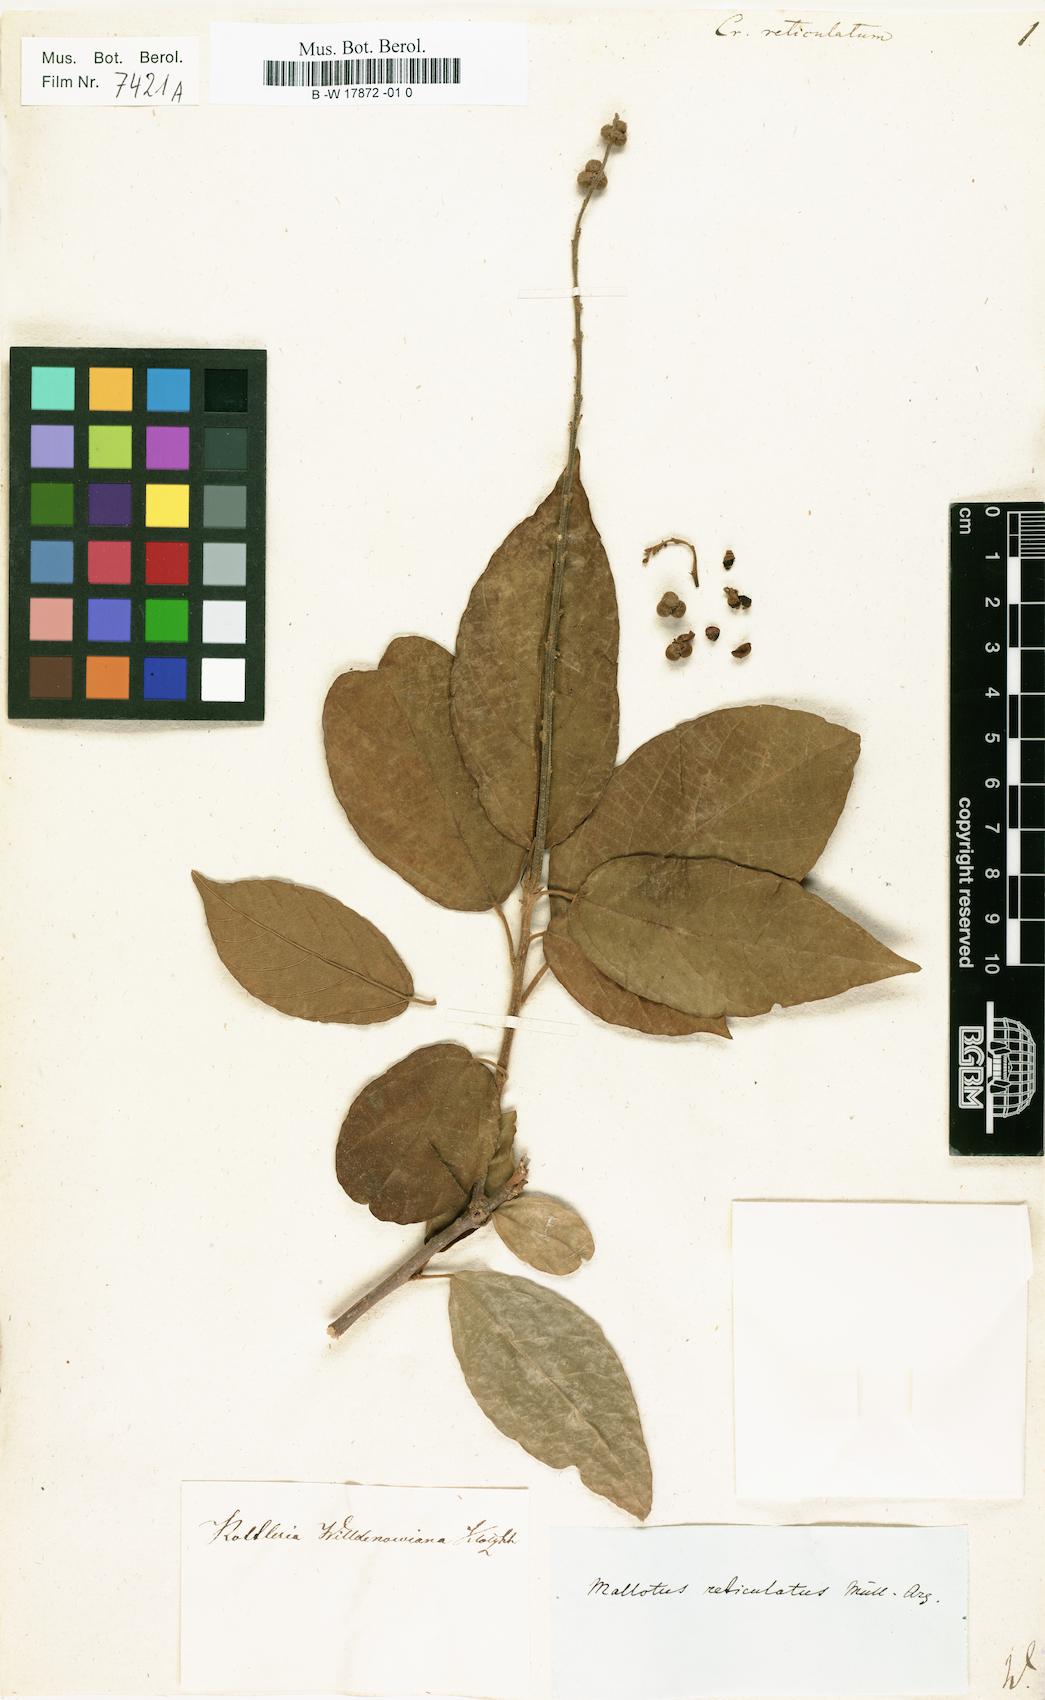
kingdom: Plantae
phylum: Tracheophyta
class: Magnoliopsida
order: Malpighiales
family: Euphorbiaceae
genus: Croton
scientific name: Croton reticulatus
